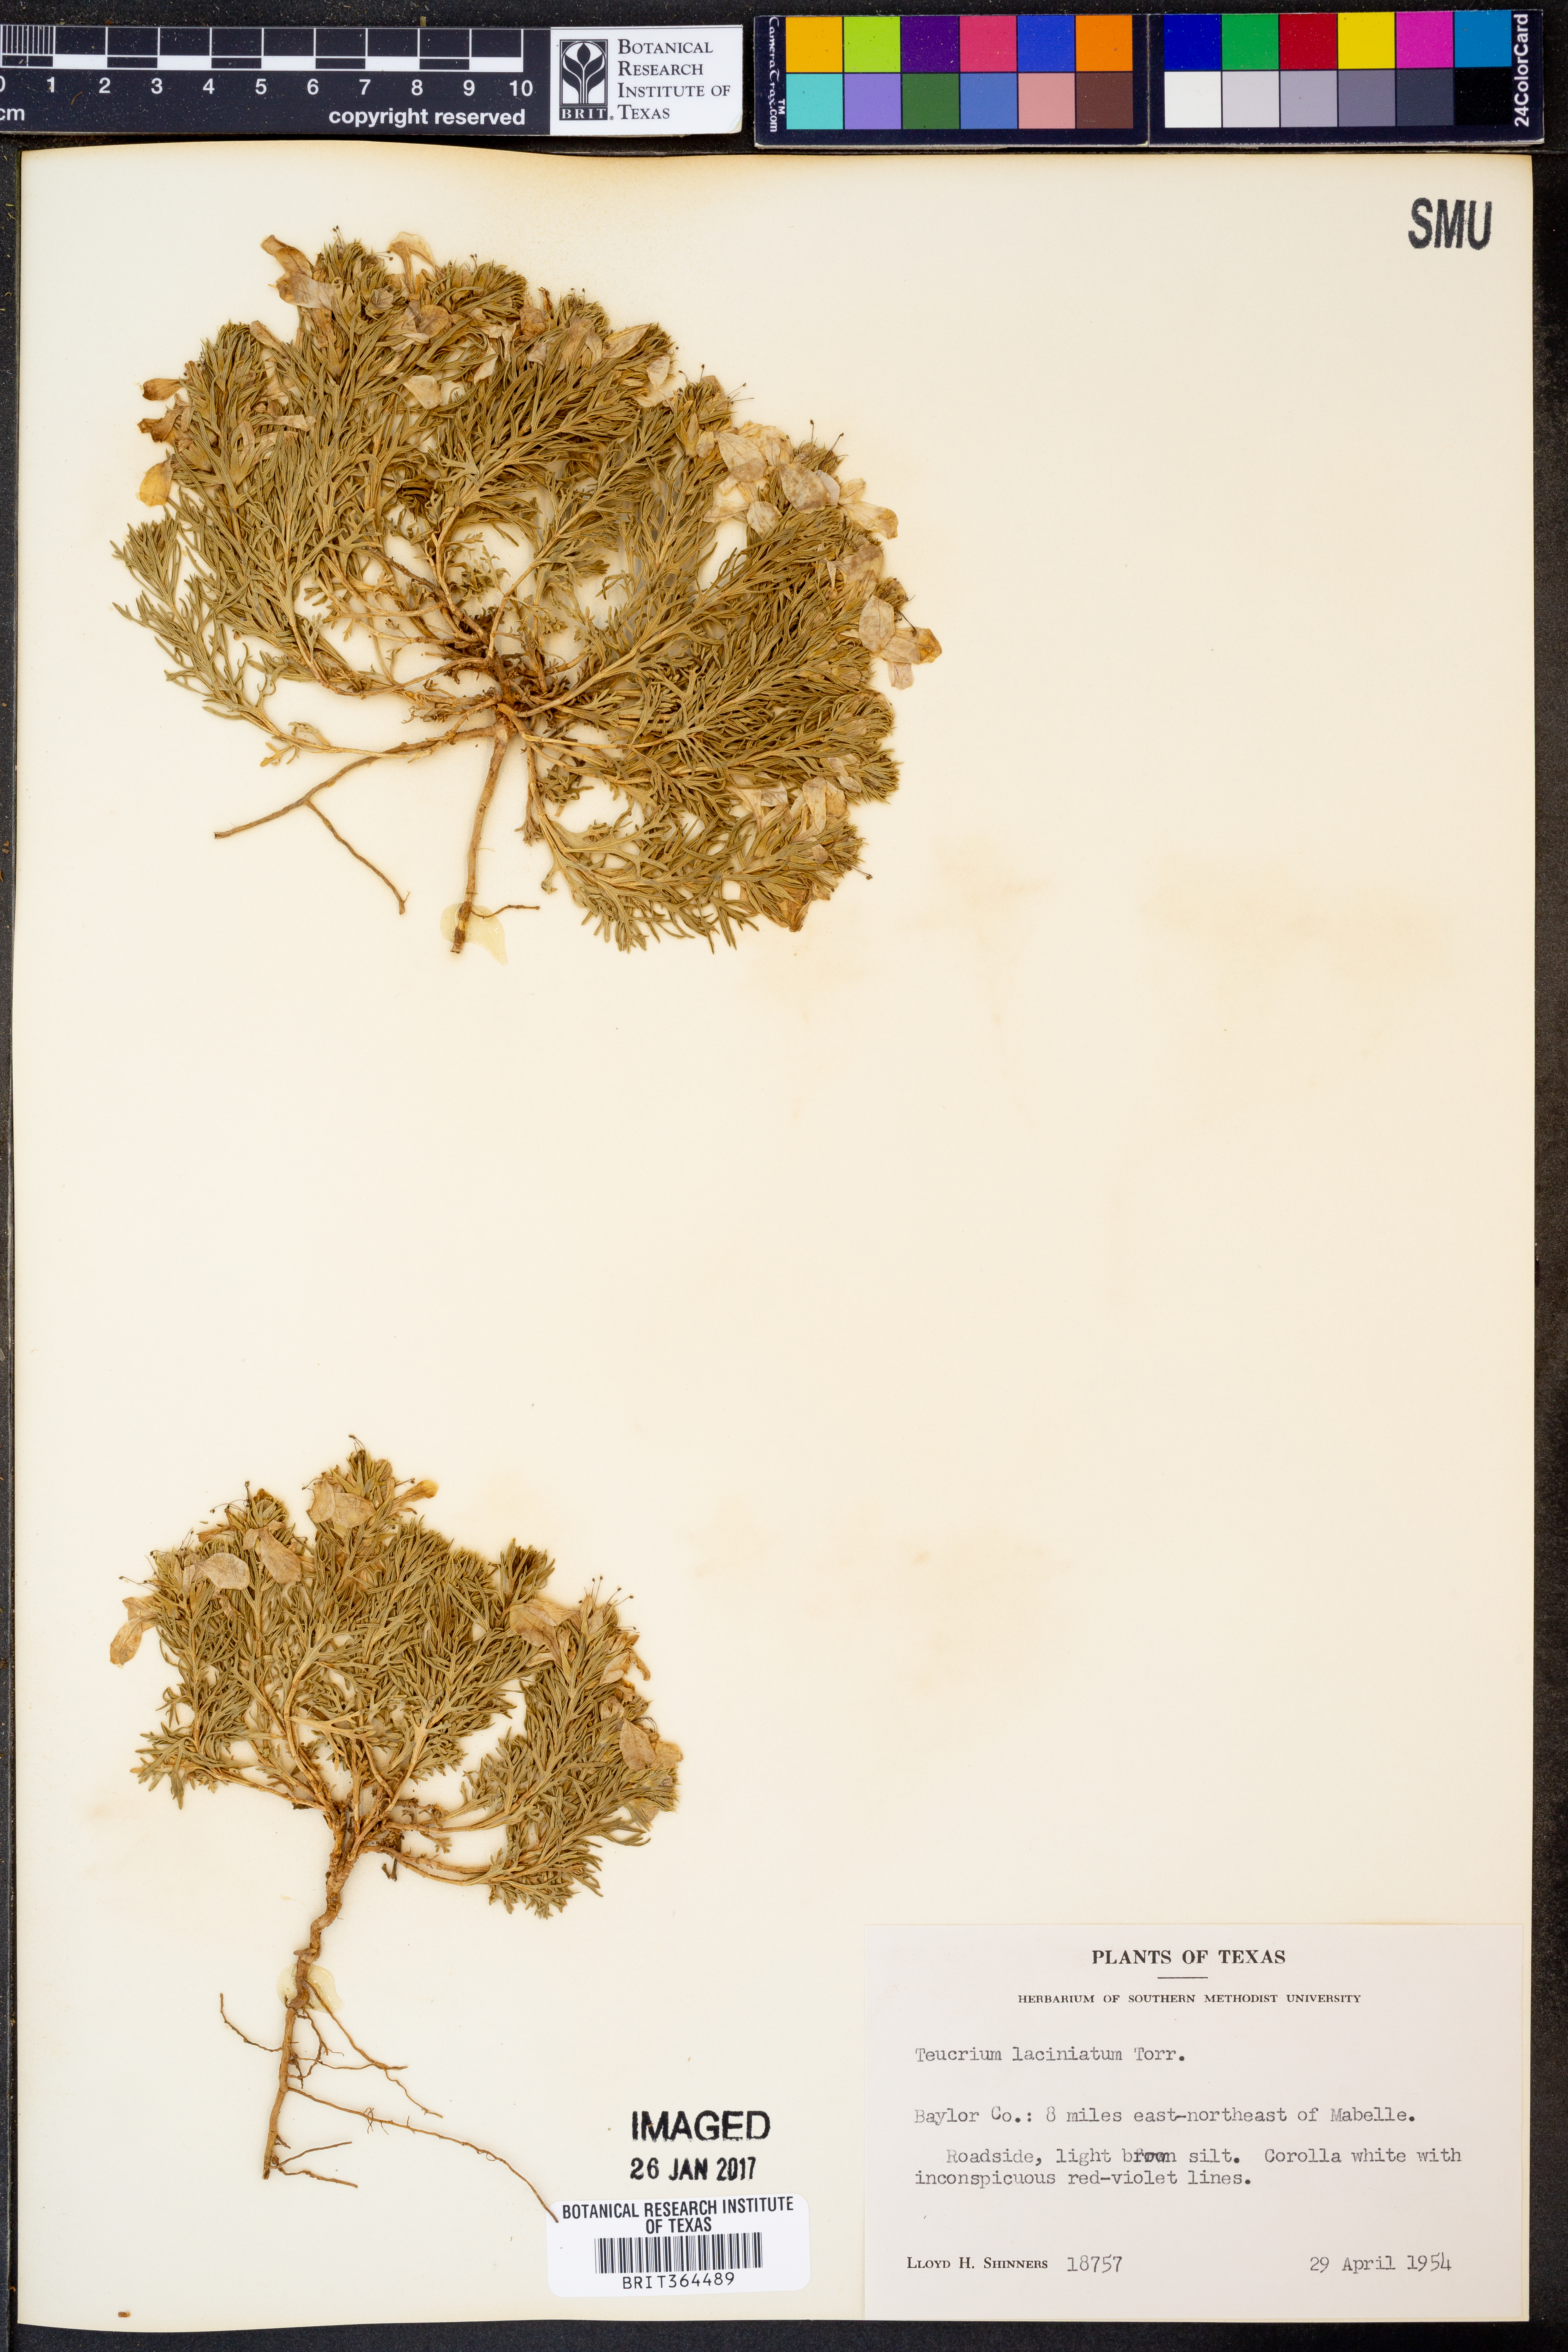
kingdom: Plantae
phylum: Tracheophyta
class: Magnoliopsida
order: Lamiales
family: Lamiaceae
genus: Teucrium
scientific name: Teucrium laciniatum
